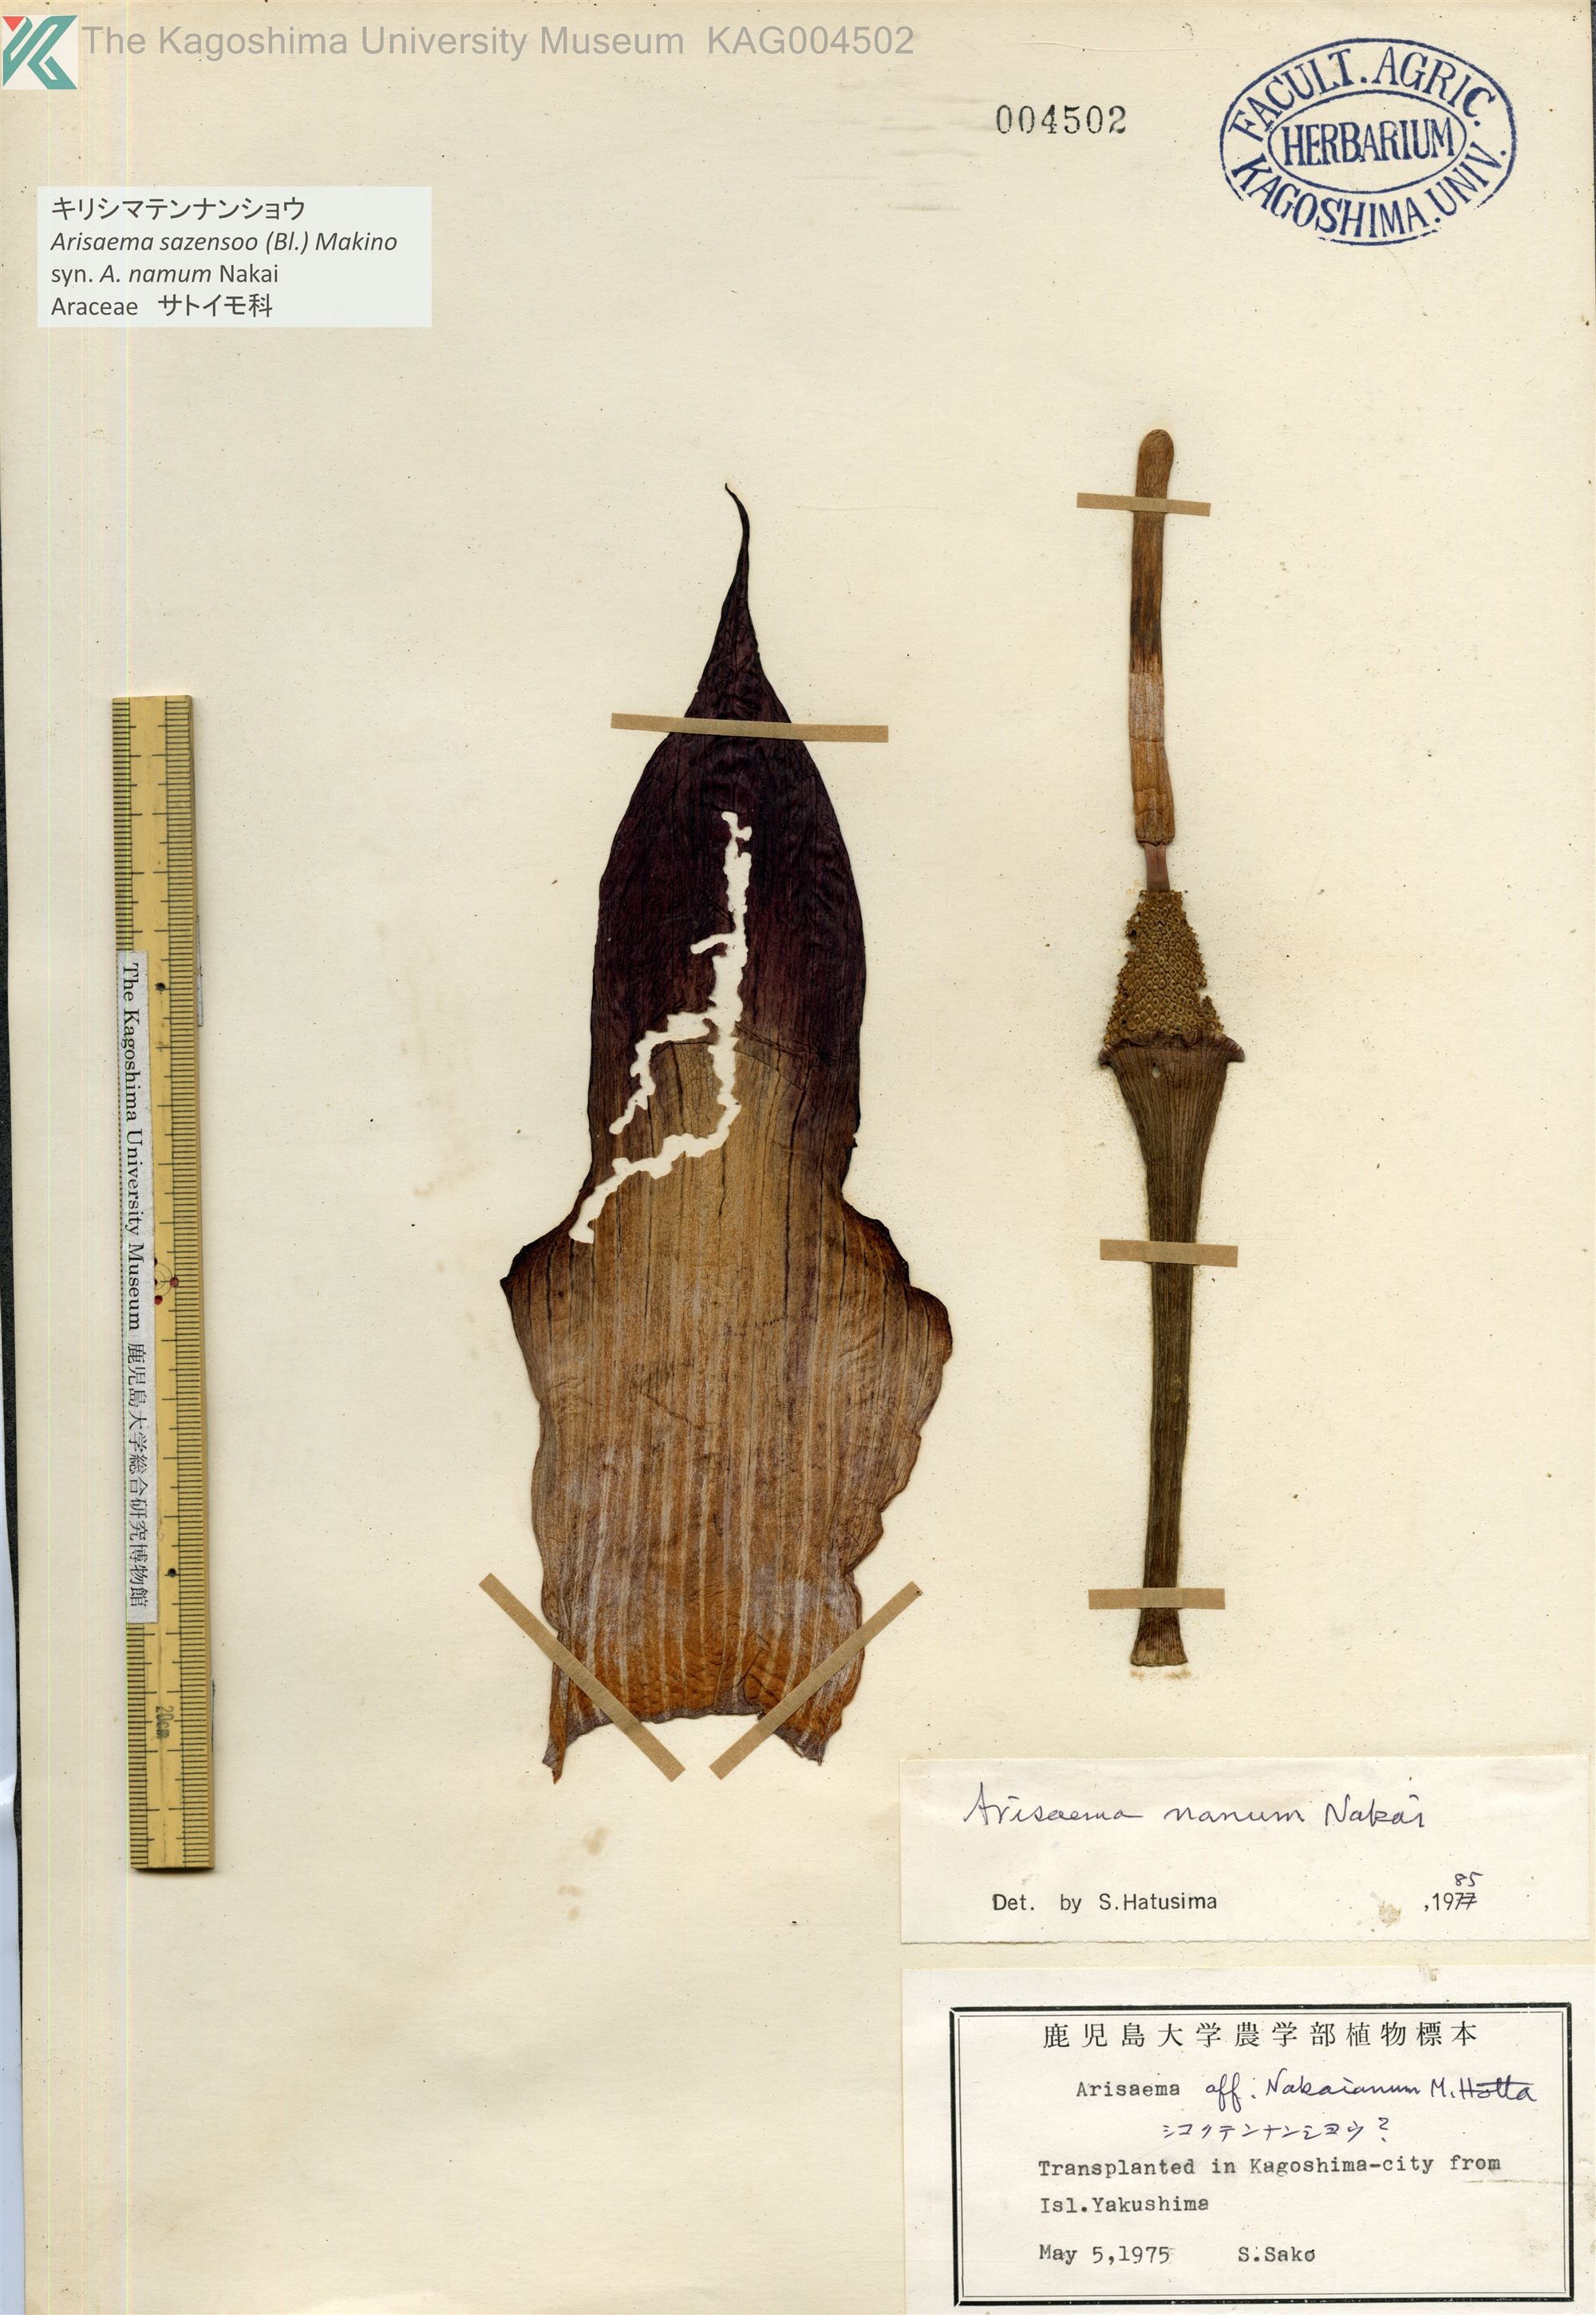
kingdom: Plantae
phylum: Tracheophyta
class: Liliopsida
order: Alismatales
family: Araceae
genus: Arisaema
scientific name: Arisaema sazensoo
